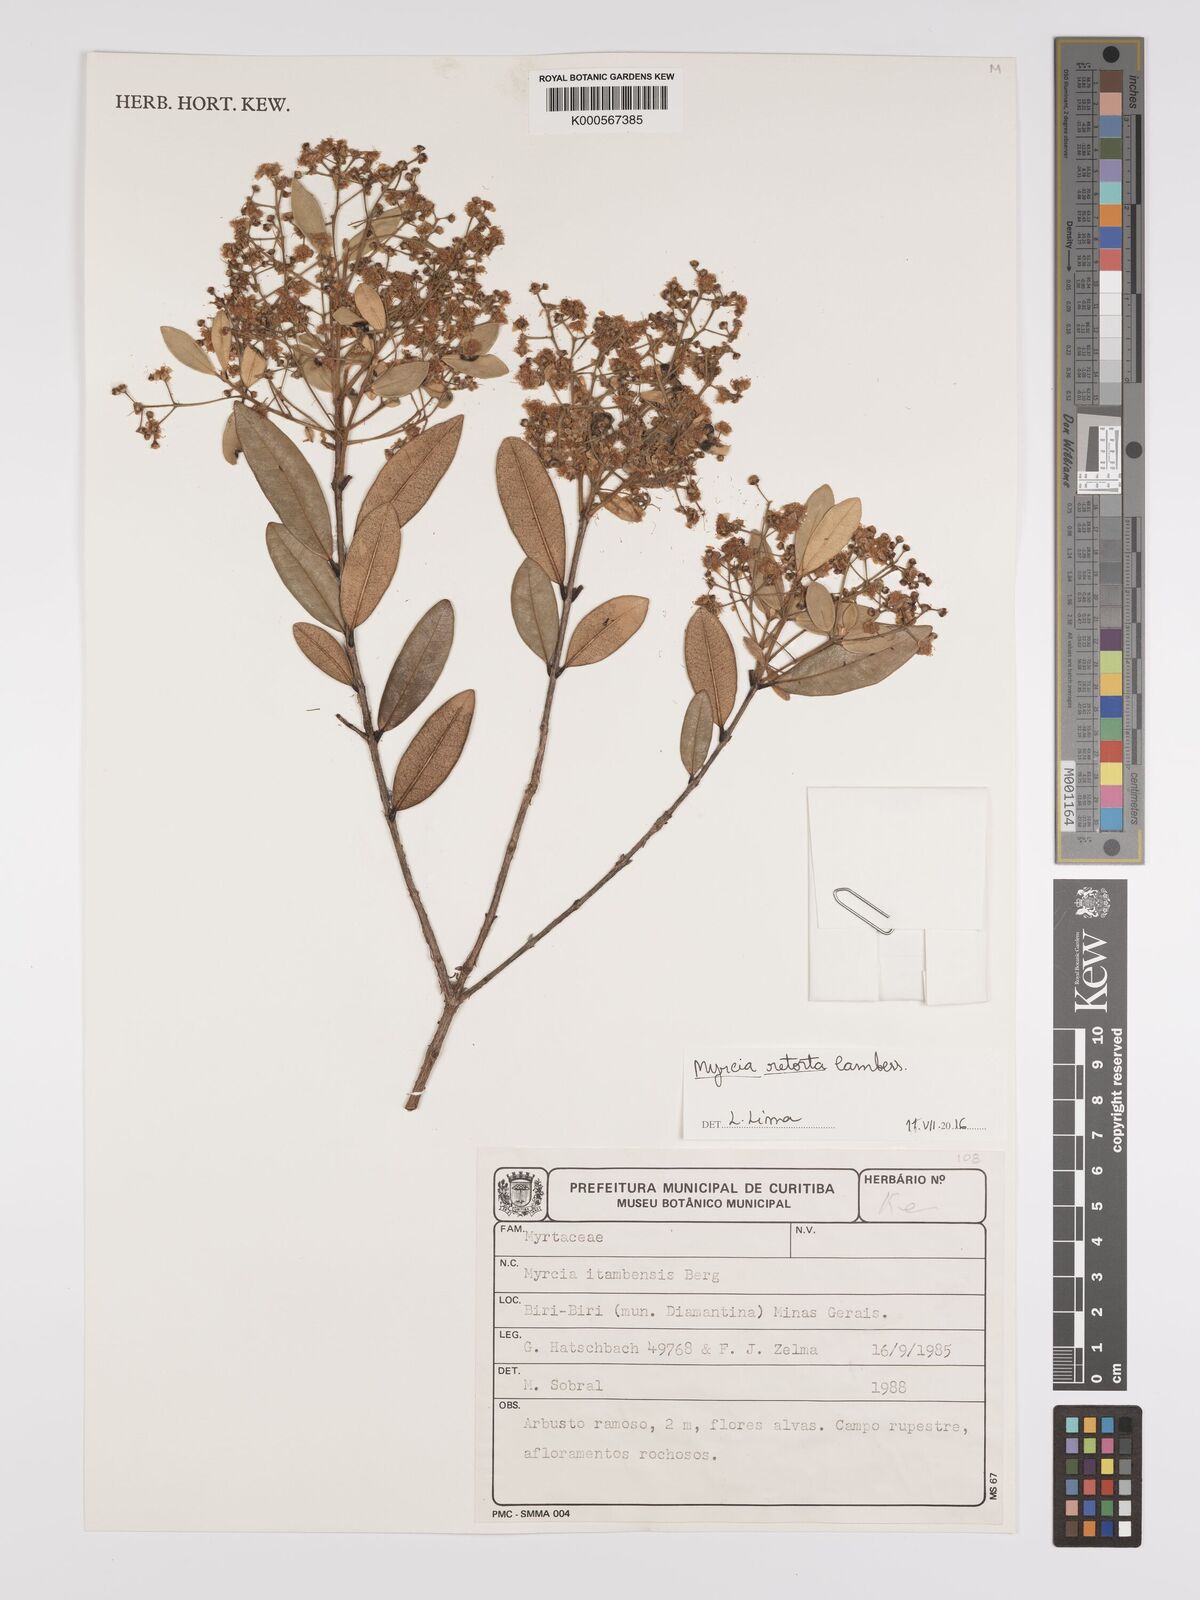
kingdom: Plantae
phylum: Tracheophyta
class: Magnoliopsida
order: Myrtales
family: Myrtaceae
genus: Myrcia
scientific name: Myrcia retorta
